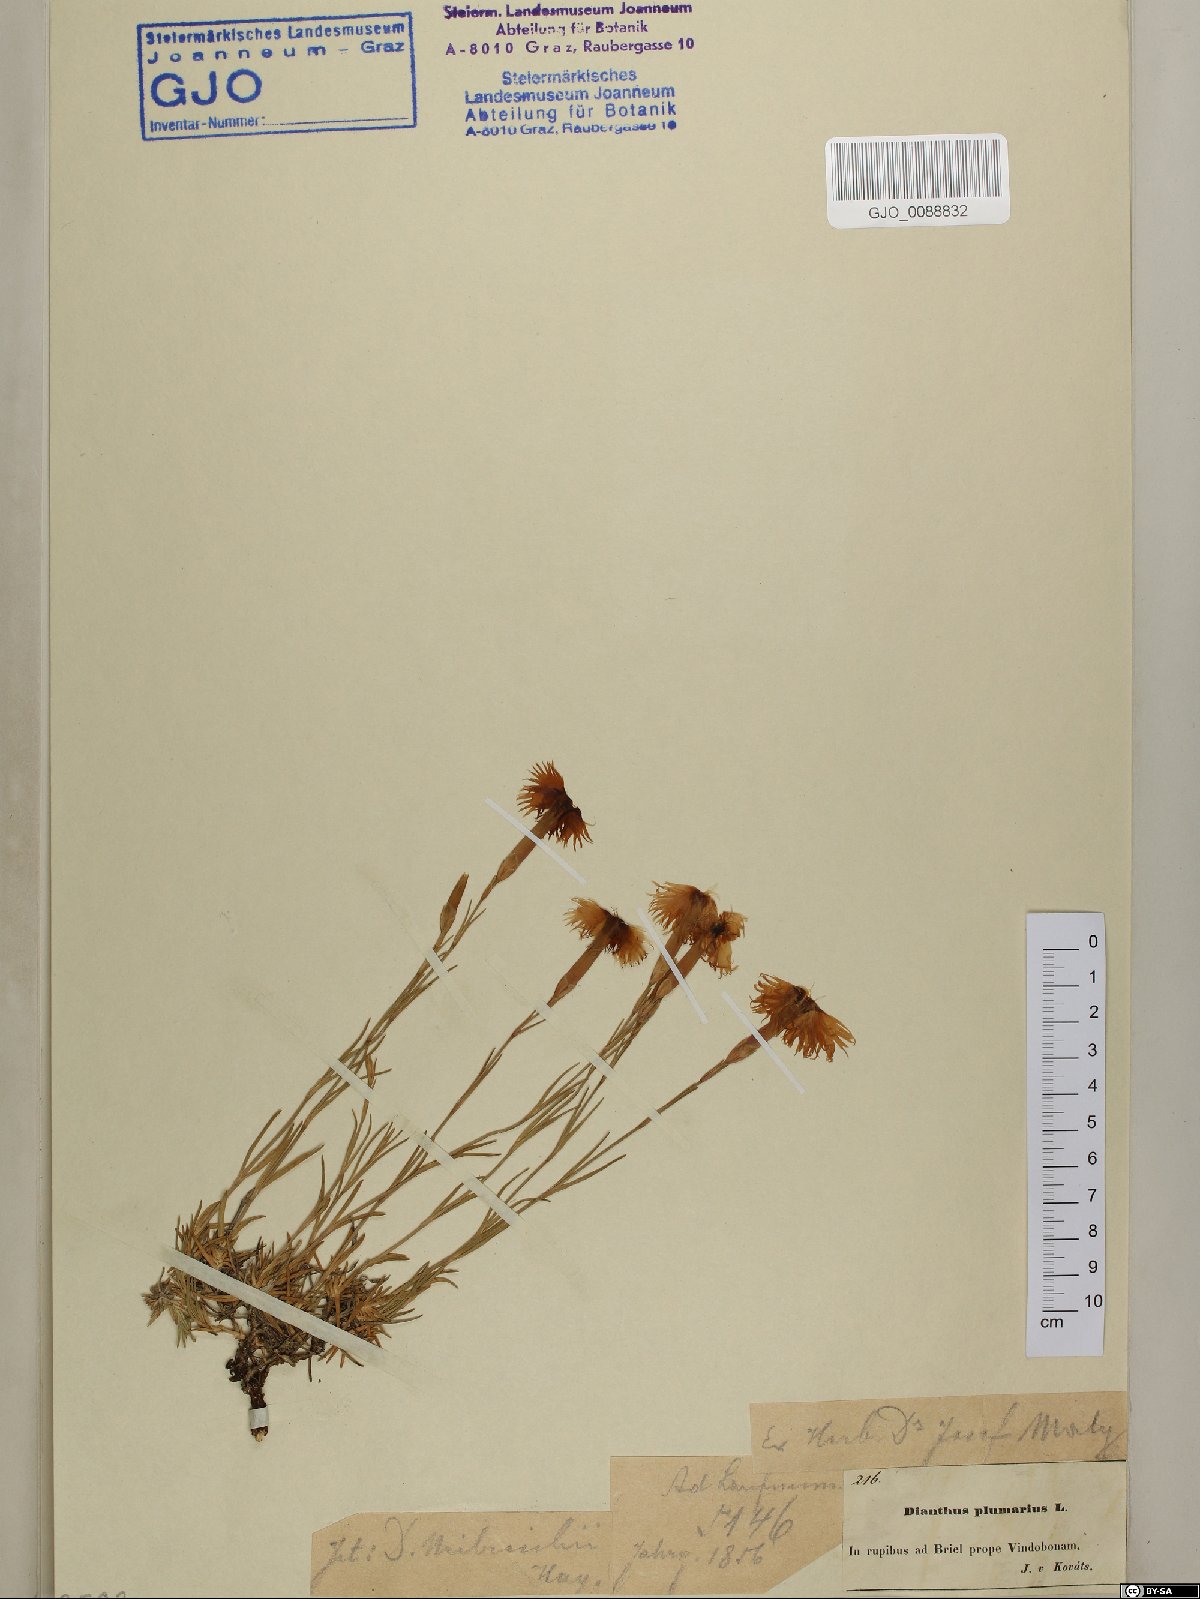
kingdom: Plantae
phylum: Tracheophyta
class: Magnoliopsida
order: Caryophyllales
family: Caryophyllaceae
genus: Dianthus
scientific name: Dianthus plumarius
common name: Pink
